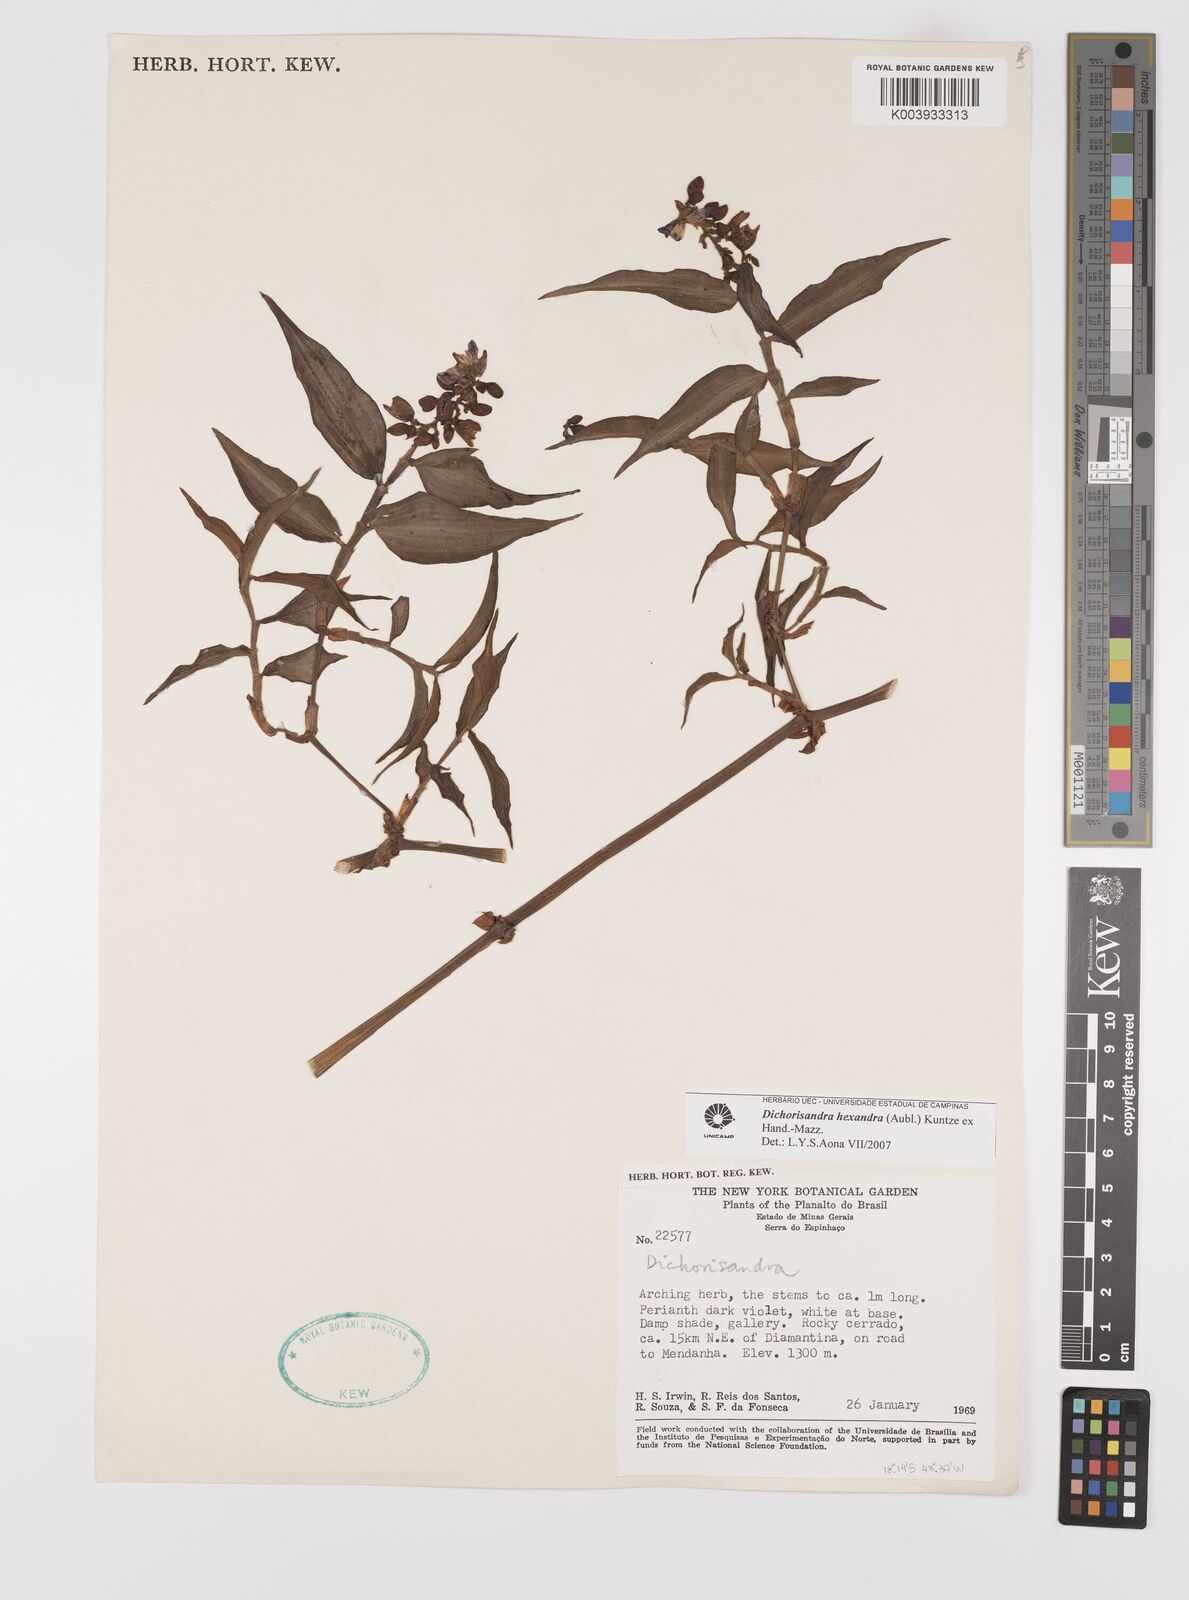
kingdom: Plantae
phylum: Tracheophyta
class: Liliopsida
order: Commelinales
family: Commelinaceae
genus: Dichorisandra
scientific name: Dichorisandra hexandra
